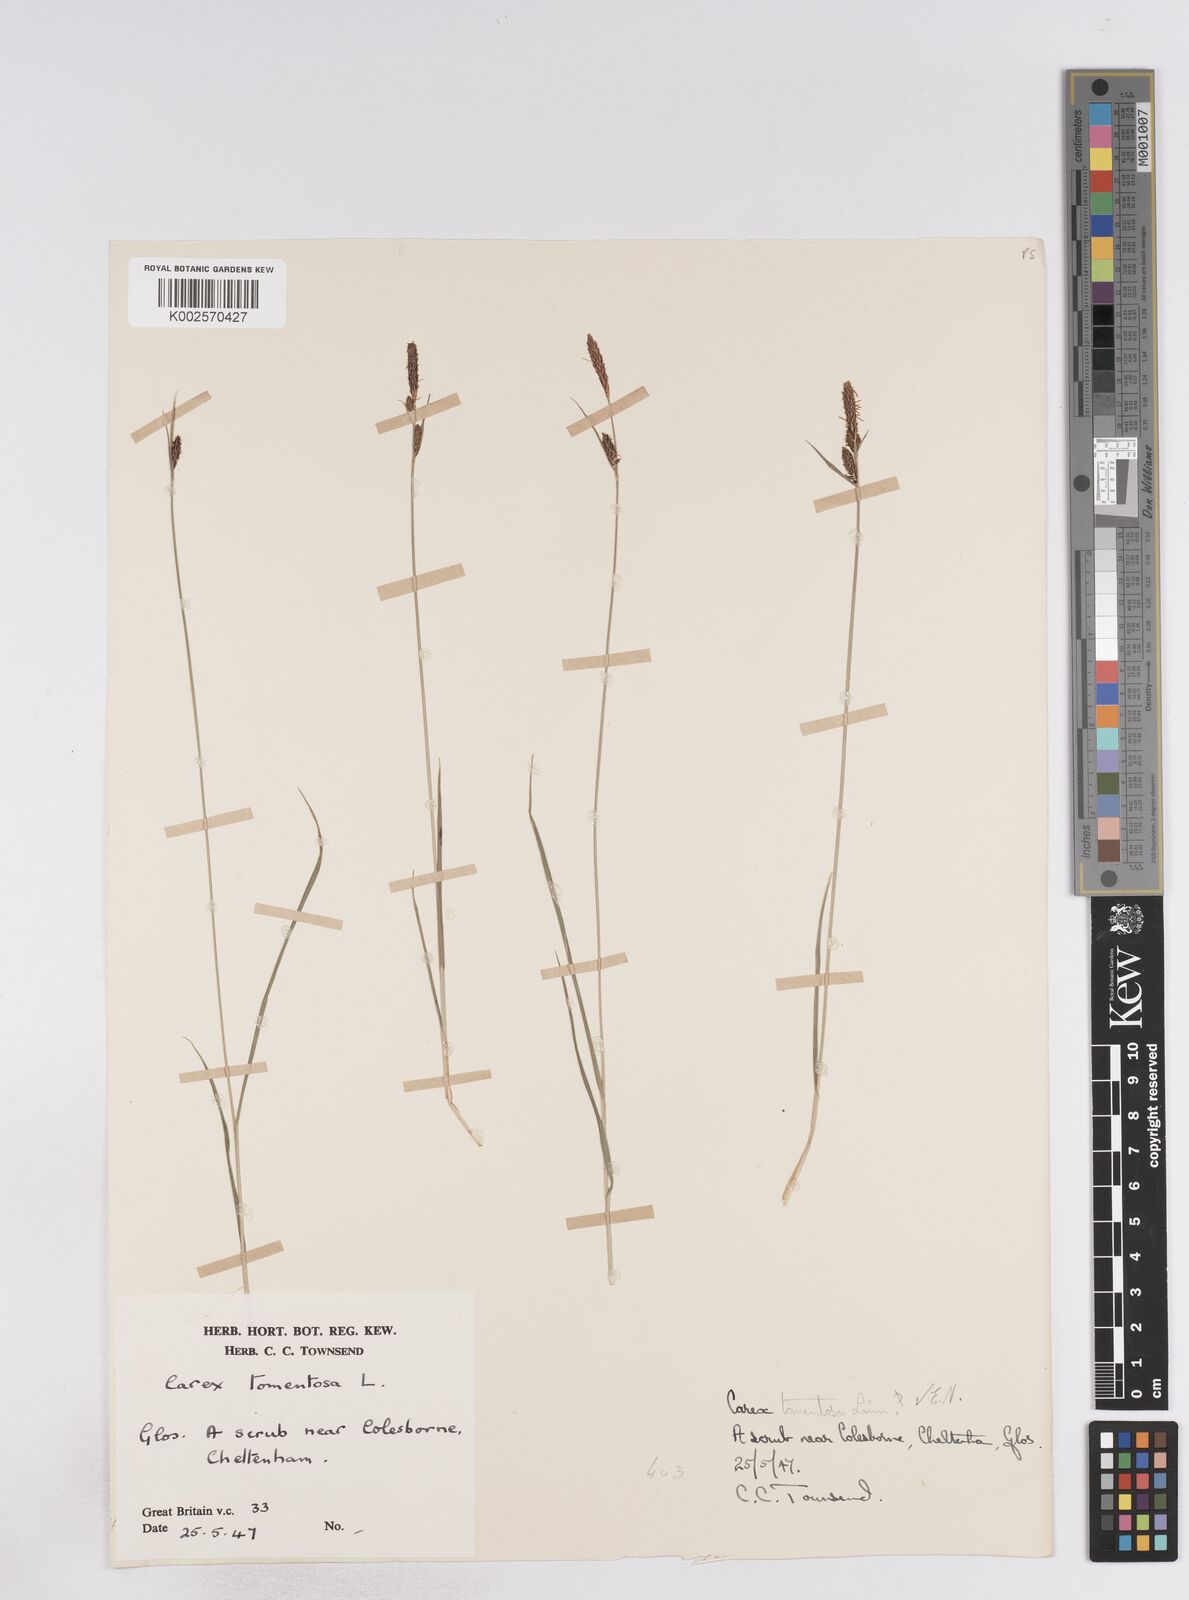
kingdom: Plantae
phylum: Tracheophyta
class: Liliopsida
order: Poales
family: Cyperaceae
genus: Carex
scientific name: Carex montana
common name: Soft-leaved sedge
